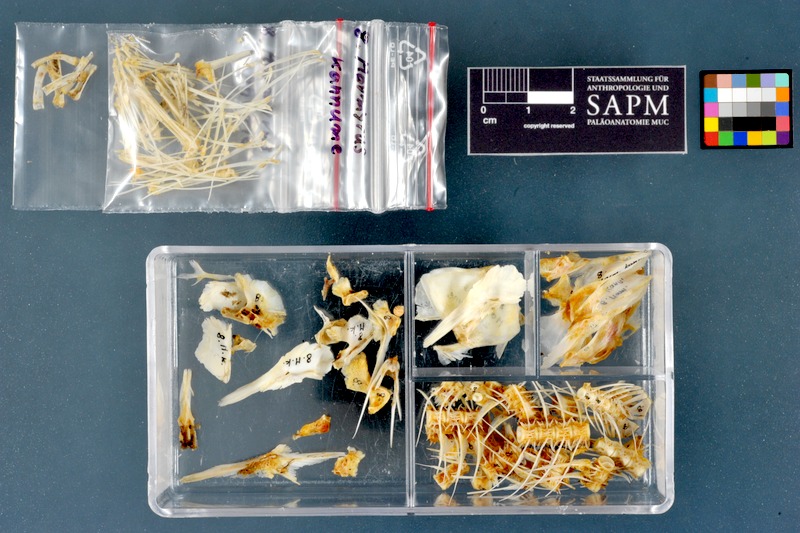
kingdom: Animalia
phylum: Chordata
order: Osteoglossiformes
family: Mormyridae
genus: Mormyrus
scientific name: Mormyrus kannume
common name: Elephant-snout fish
